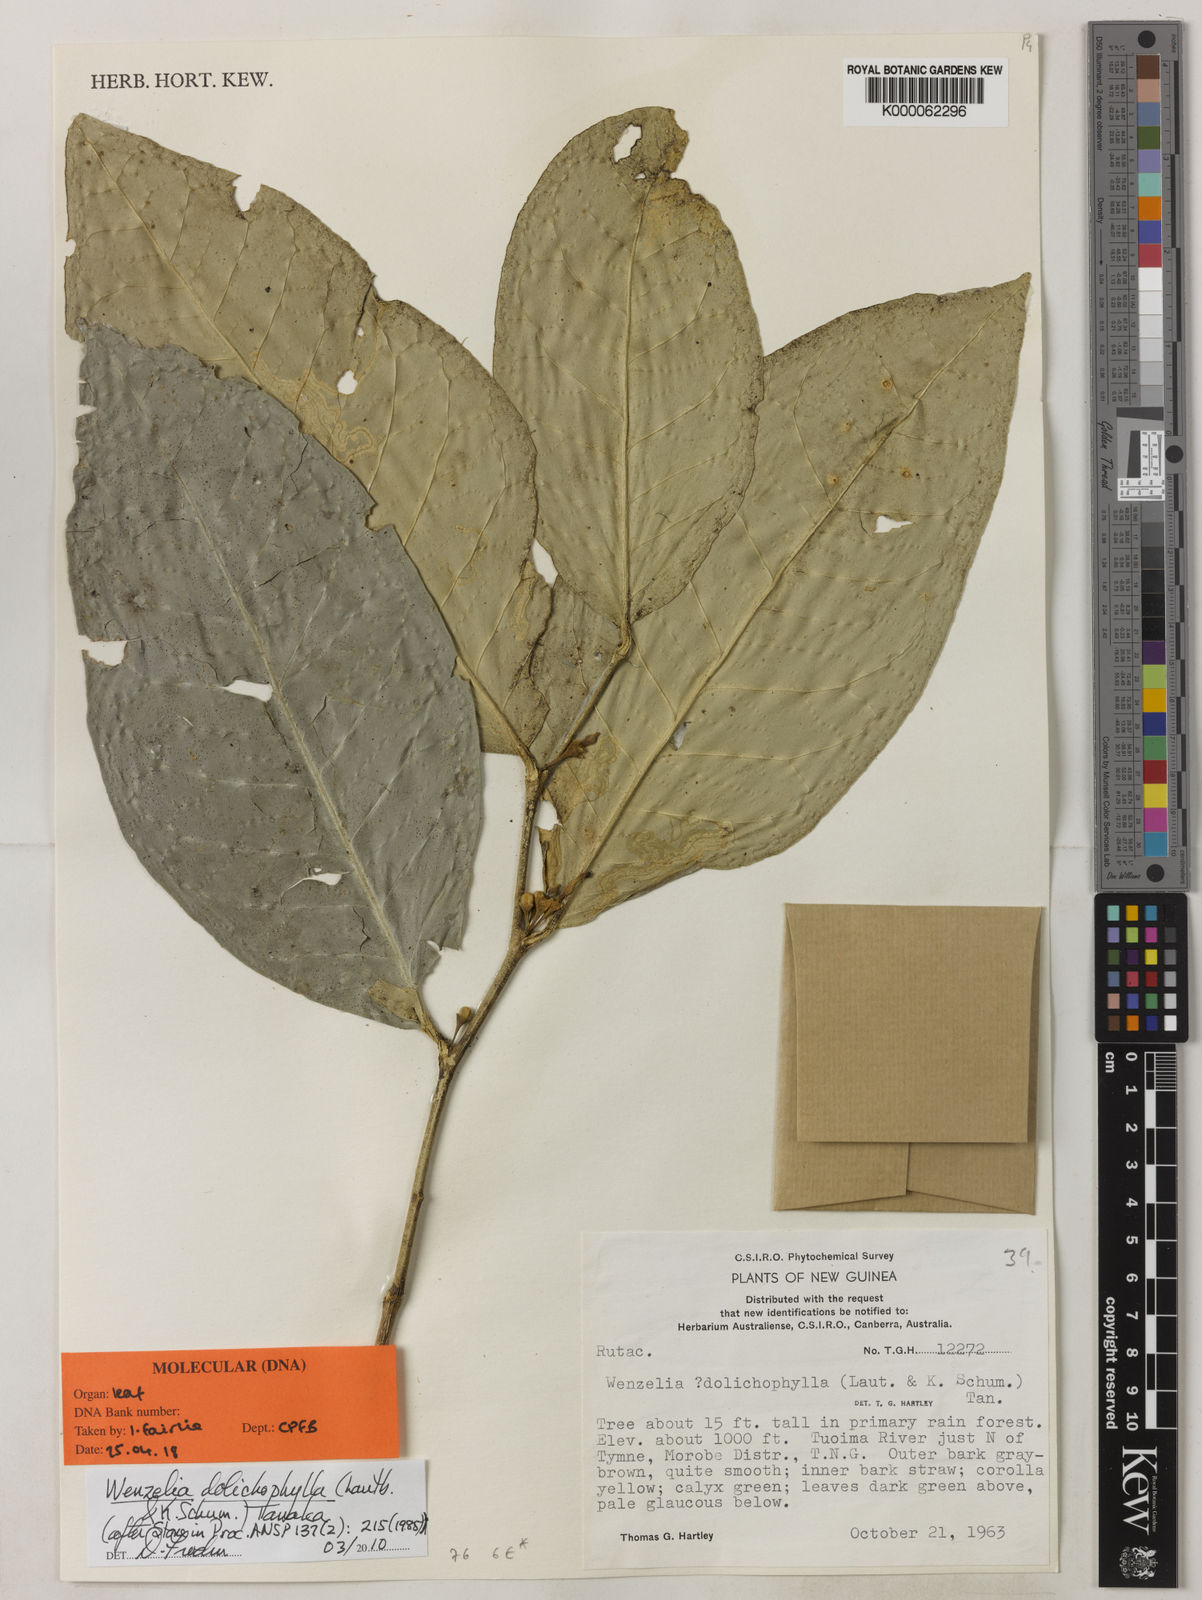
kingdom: Plantae
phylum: Tracheophyta
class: Magnoliopsida
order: Sapindales
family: Rutaceae
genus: Wenzelia
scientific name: Wenzelia dolichophylla
